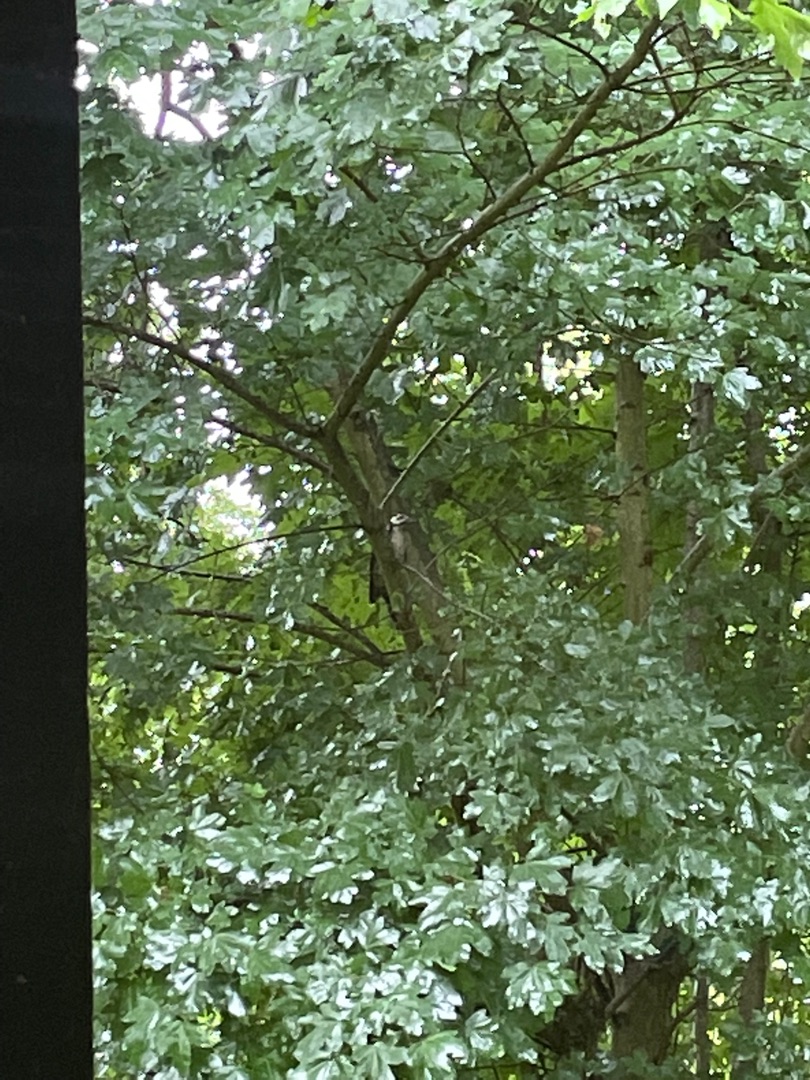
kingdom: Animalia
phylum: Chordata
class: Aves
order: Piciformes
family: Picidae
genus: Dendrocopos
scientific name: Dendrocopos major
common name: Stor flagspætte
